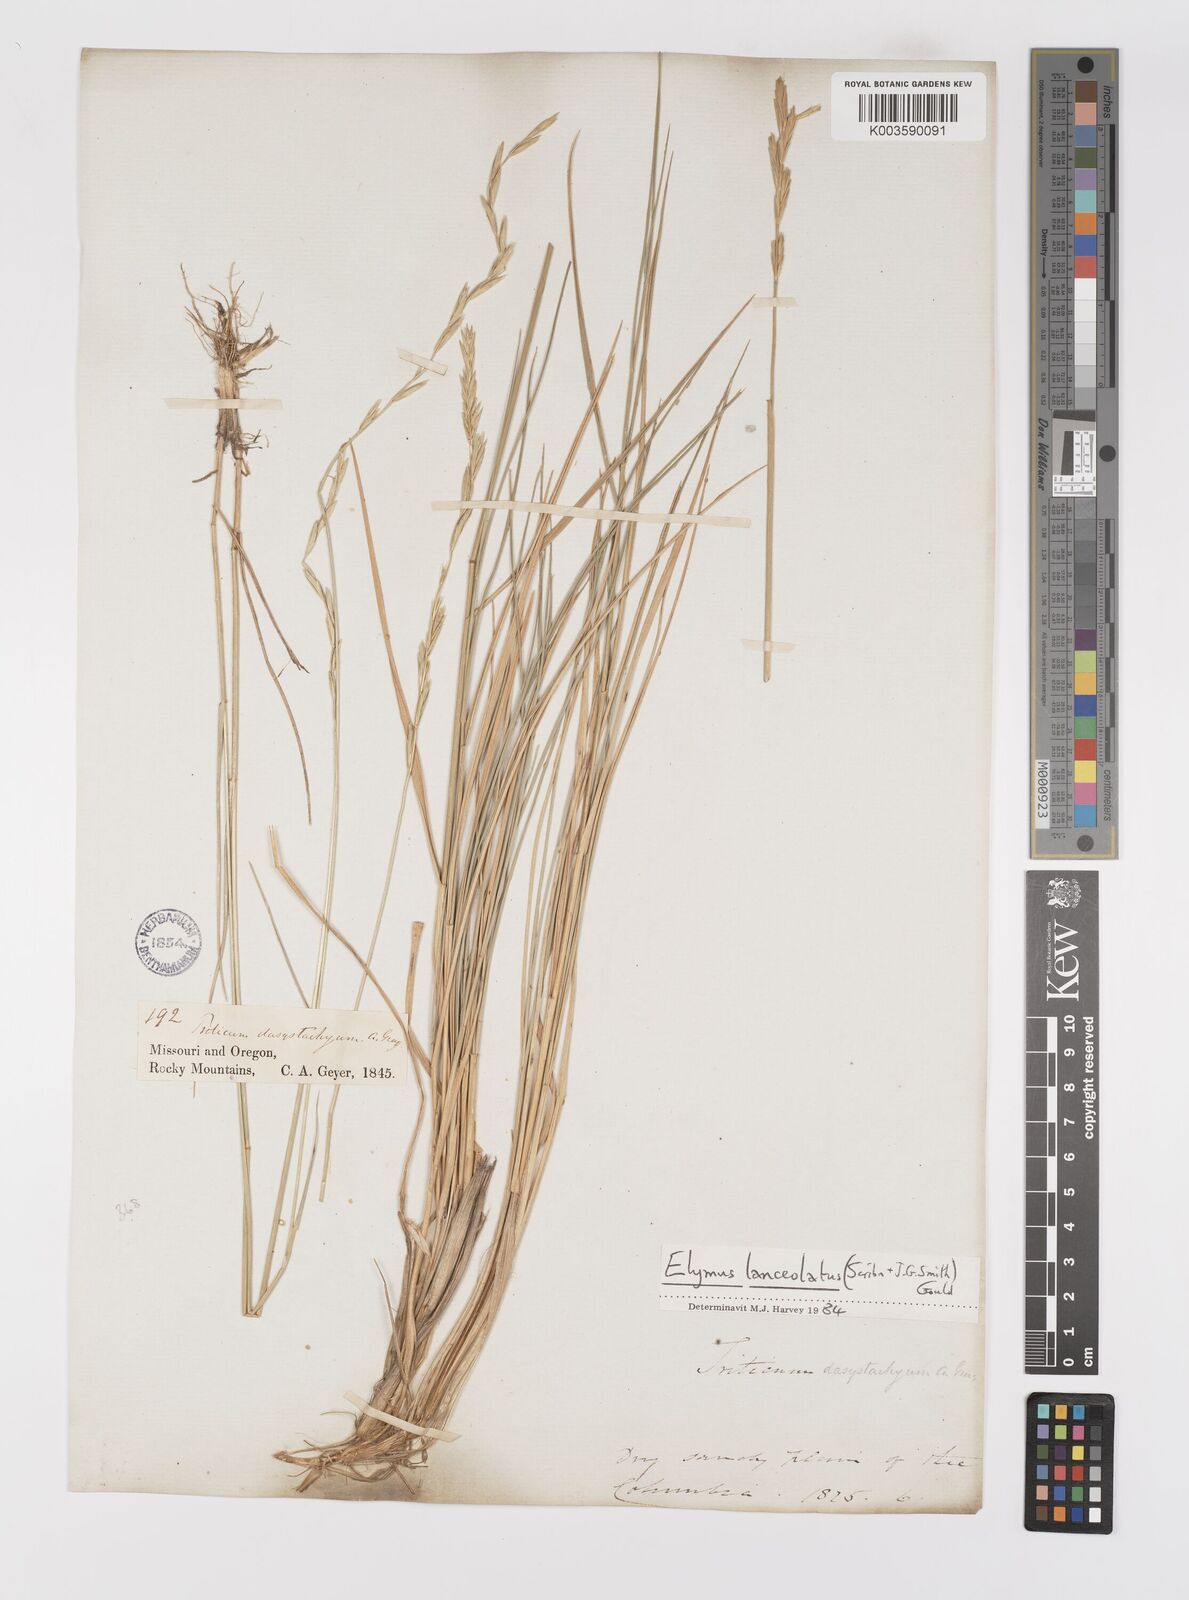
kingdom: Plantae
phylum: Tracheophyta
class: Liliopsida
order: Poales
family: Poaceae
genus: Elymus
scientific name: Elymus repens
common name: Quackgrass
